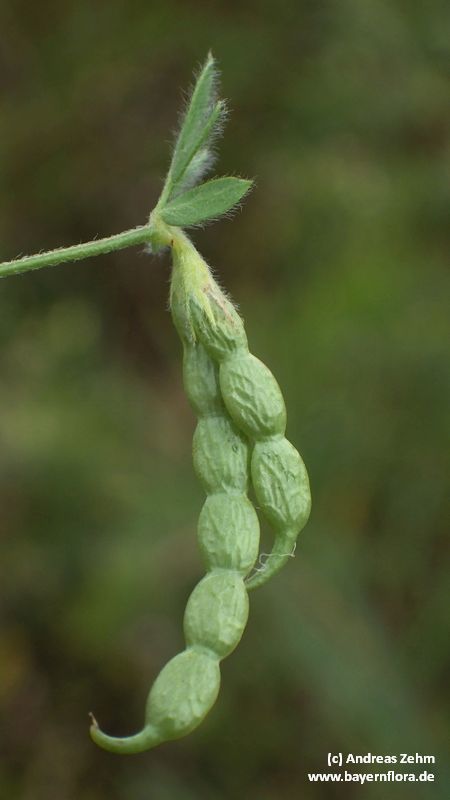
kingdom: Plantae
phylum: Tracheophyta
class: Magnoliopsida
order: Fabales
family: Fabaceae
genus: Ornithopus
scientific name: Ornithopus sativus
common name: Serradella
